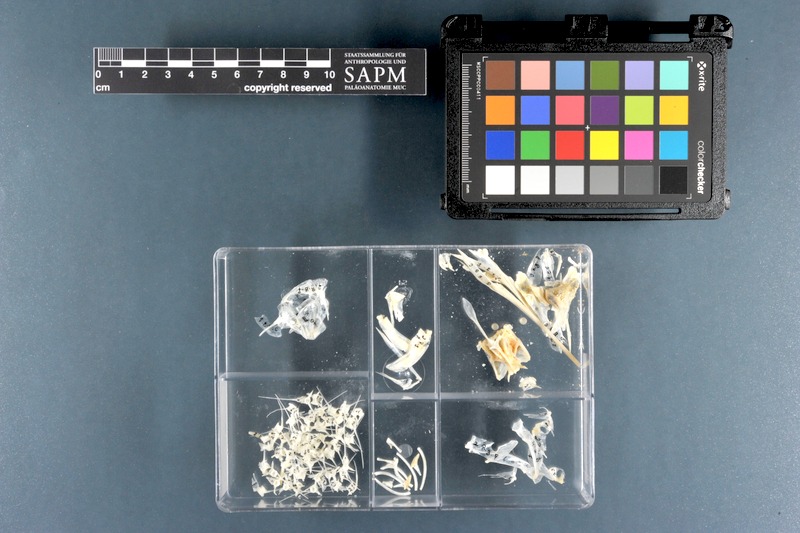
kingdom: Animalia
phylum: Chordata
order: Beloniformes
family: Hemiramphidae
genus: Rhynchorhamphus
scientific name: Rhynchorhamphus georgii
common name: Long billed half beak
